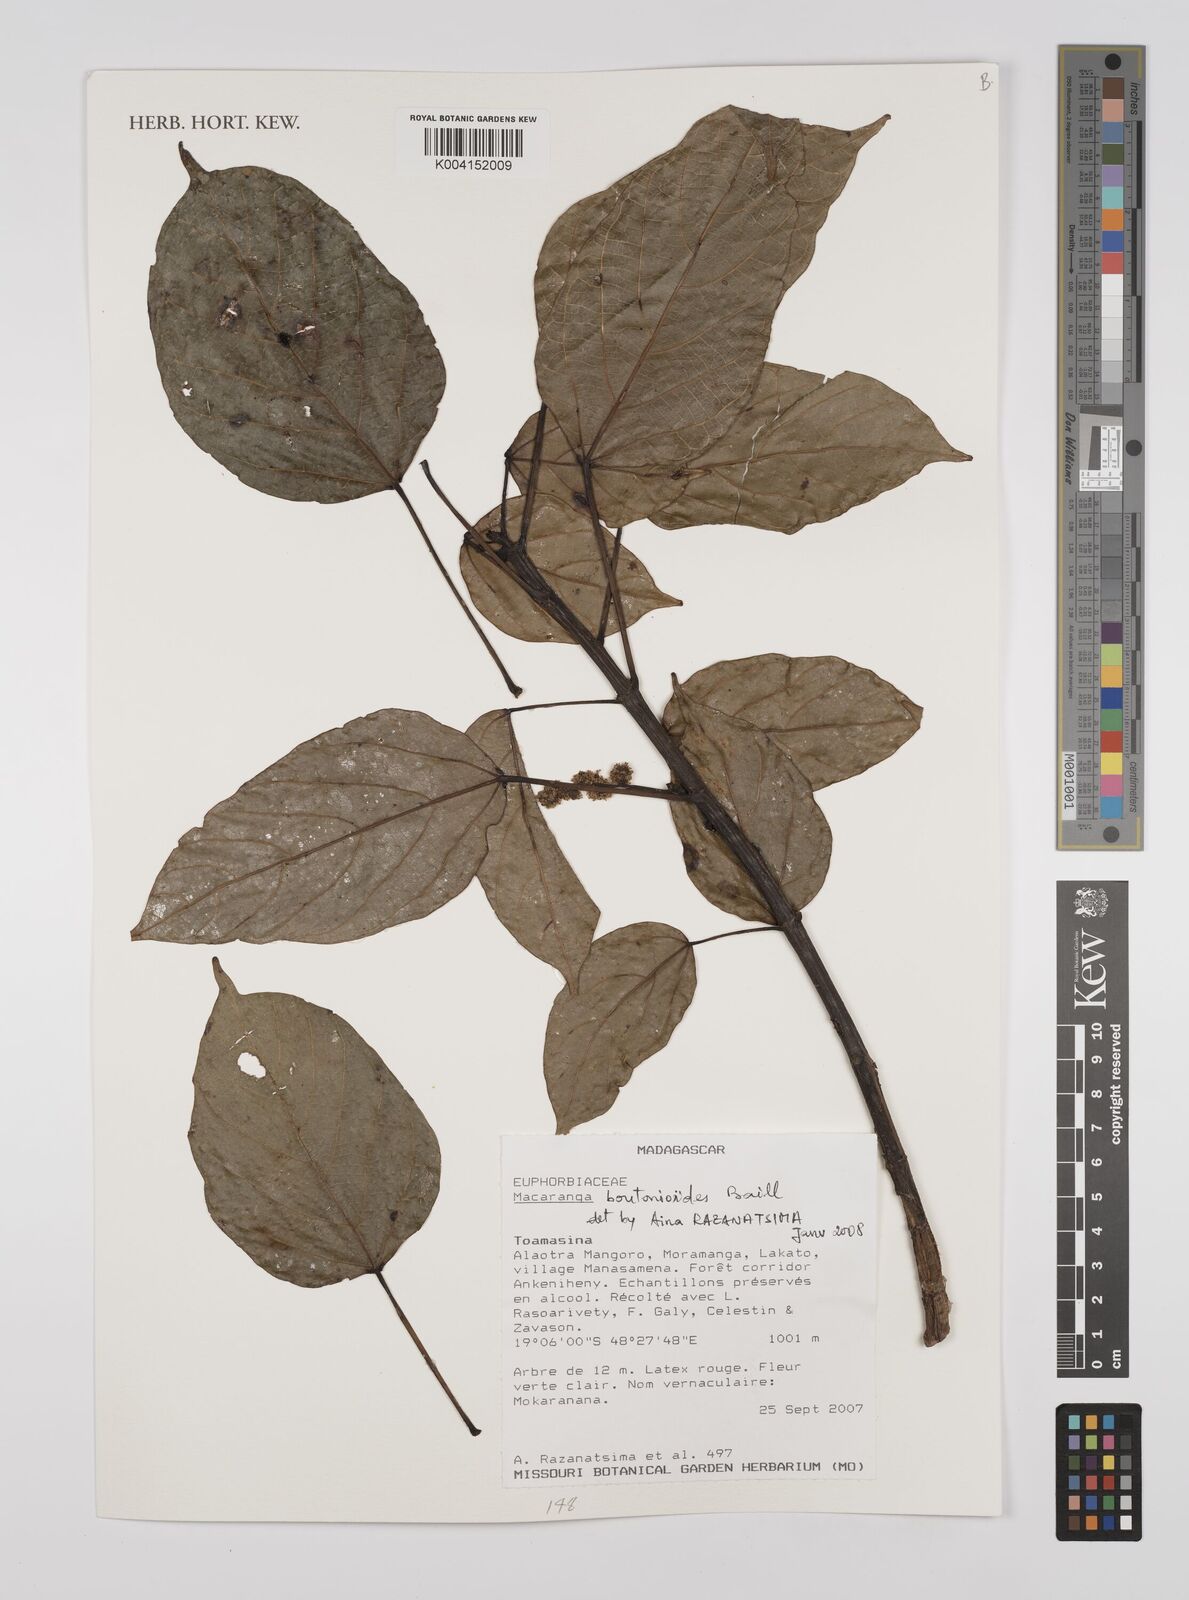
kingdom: Plantae
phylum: Tracheophyta
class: Magnoliopsida
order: Malpighiales
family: Euphorbiaceae
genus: Macaranga
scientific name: Macaranga
